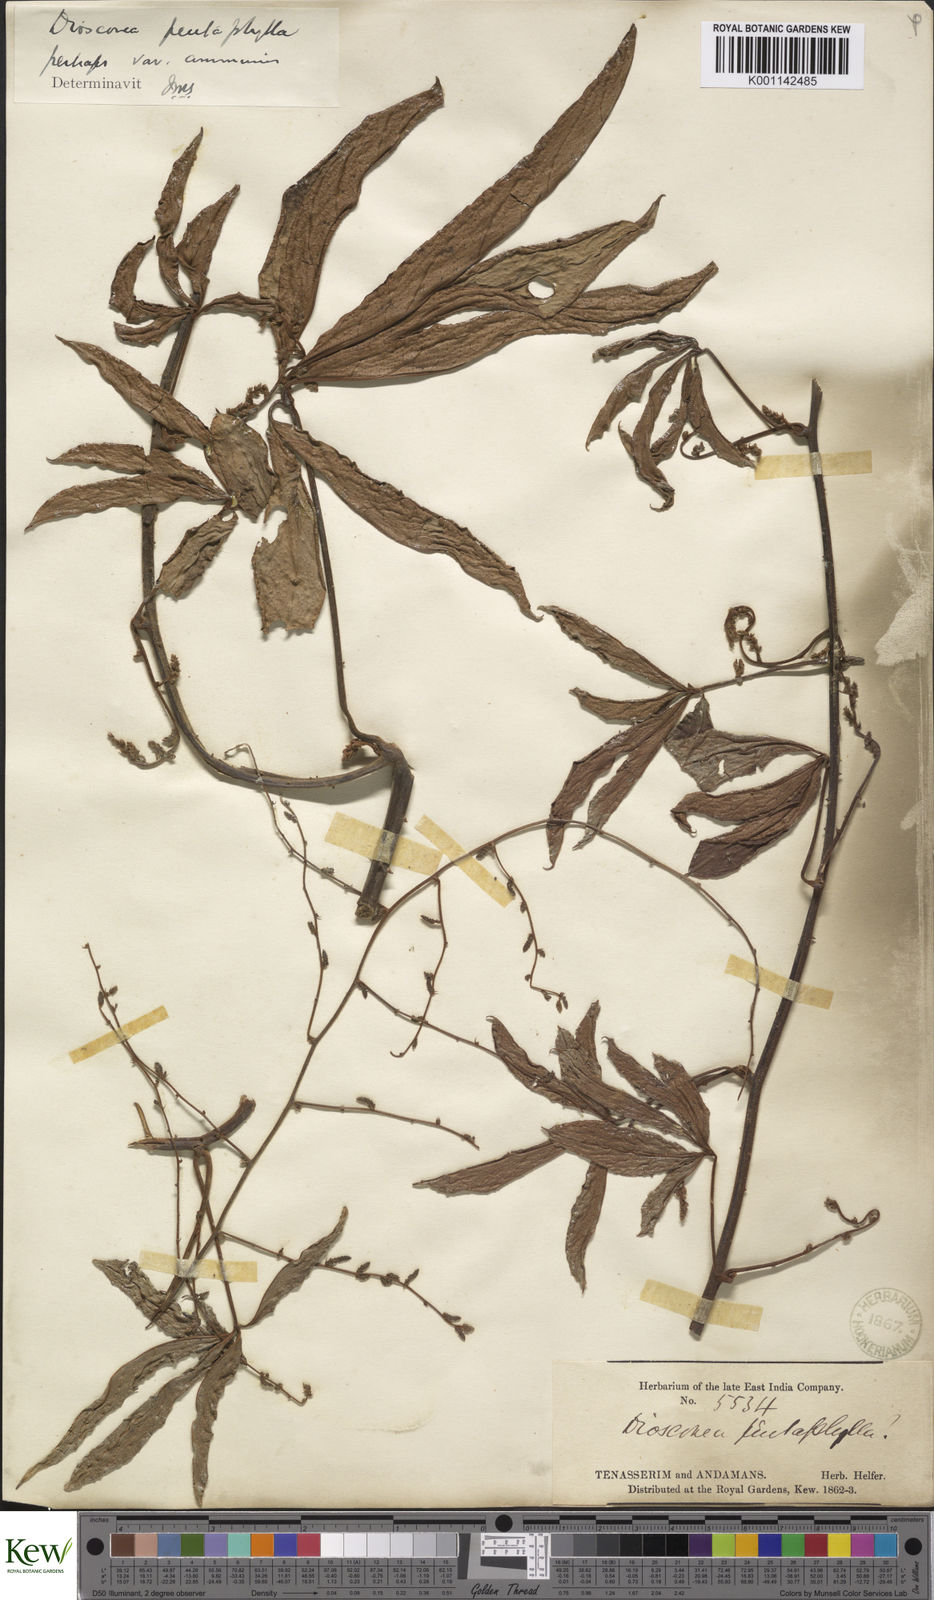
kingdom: Plantae
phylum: Tracheophyta
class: Liliopsida
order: Dioscoreales
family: Dioscoreaceae
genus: Dioscorea
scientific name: Dioscorea pentaphylla
